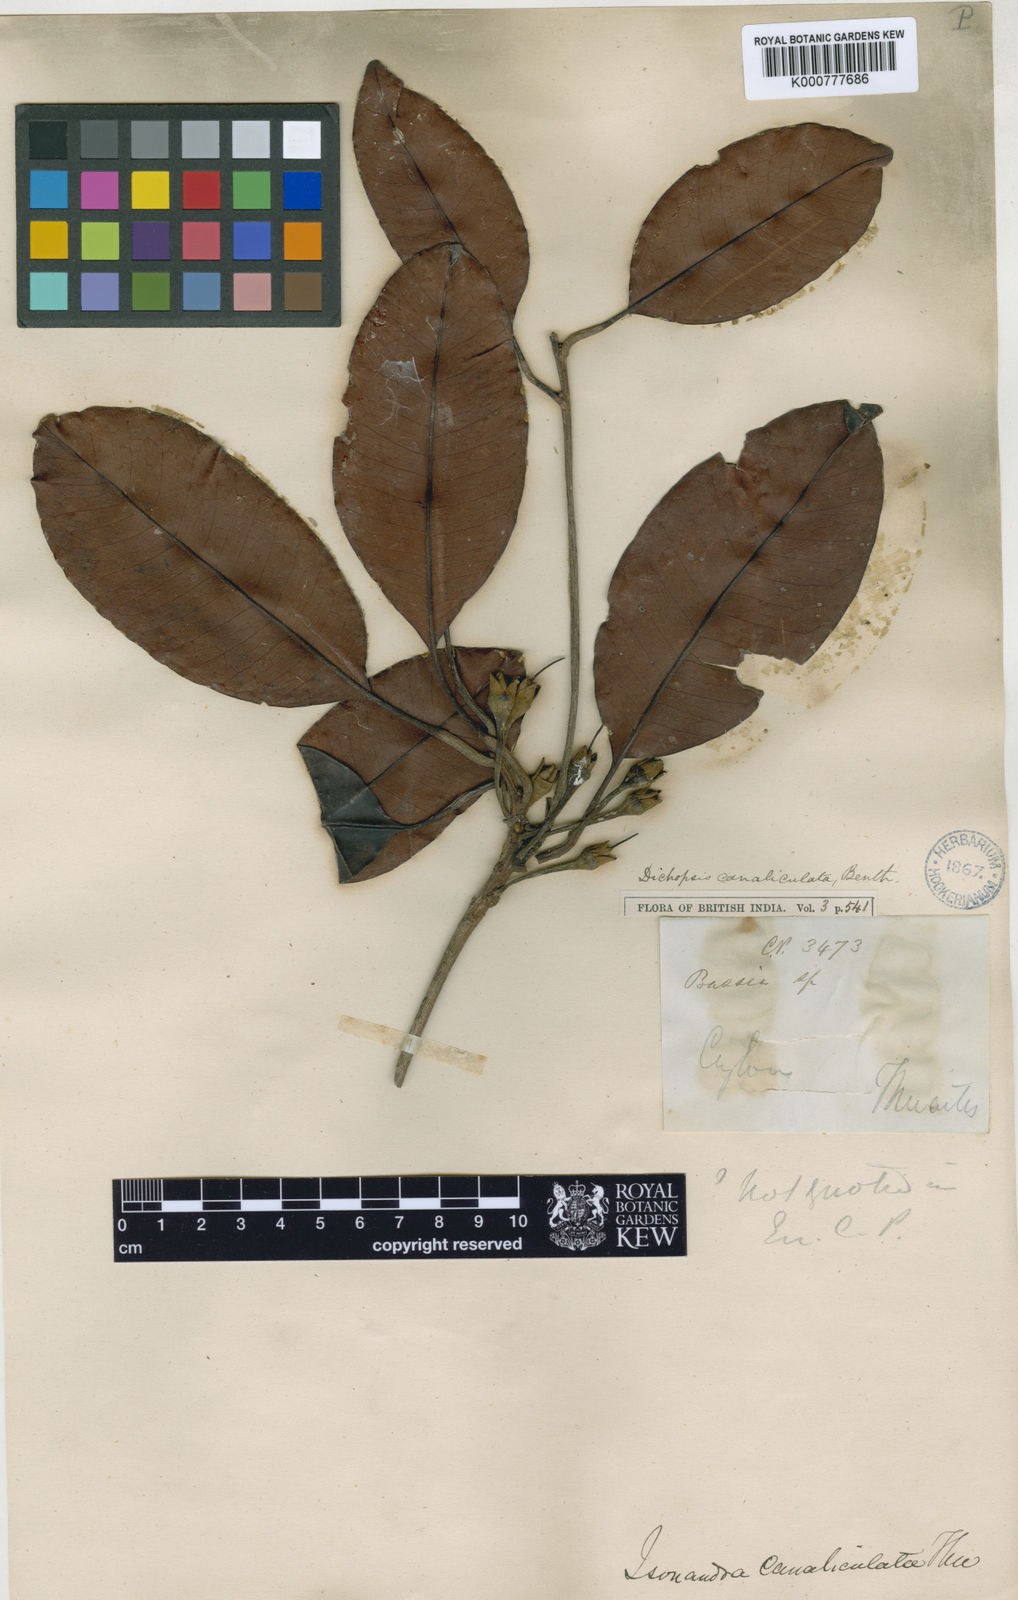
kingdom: Plantae
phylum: Tracheophyta
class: Magnoliopsida
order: Ericales
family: Sapotaceae
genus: Palaquium
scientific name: Palaquium canaliculatum
